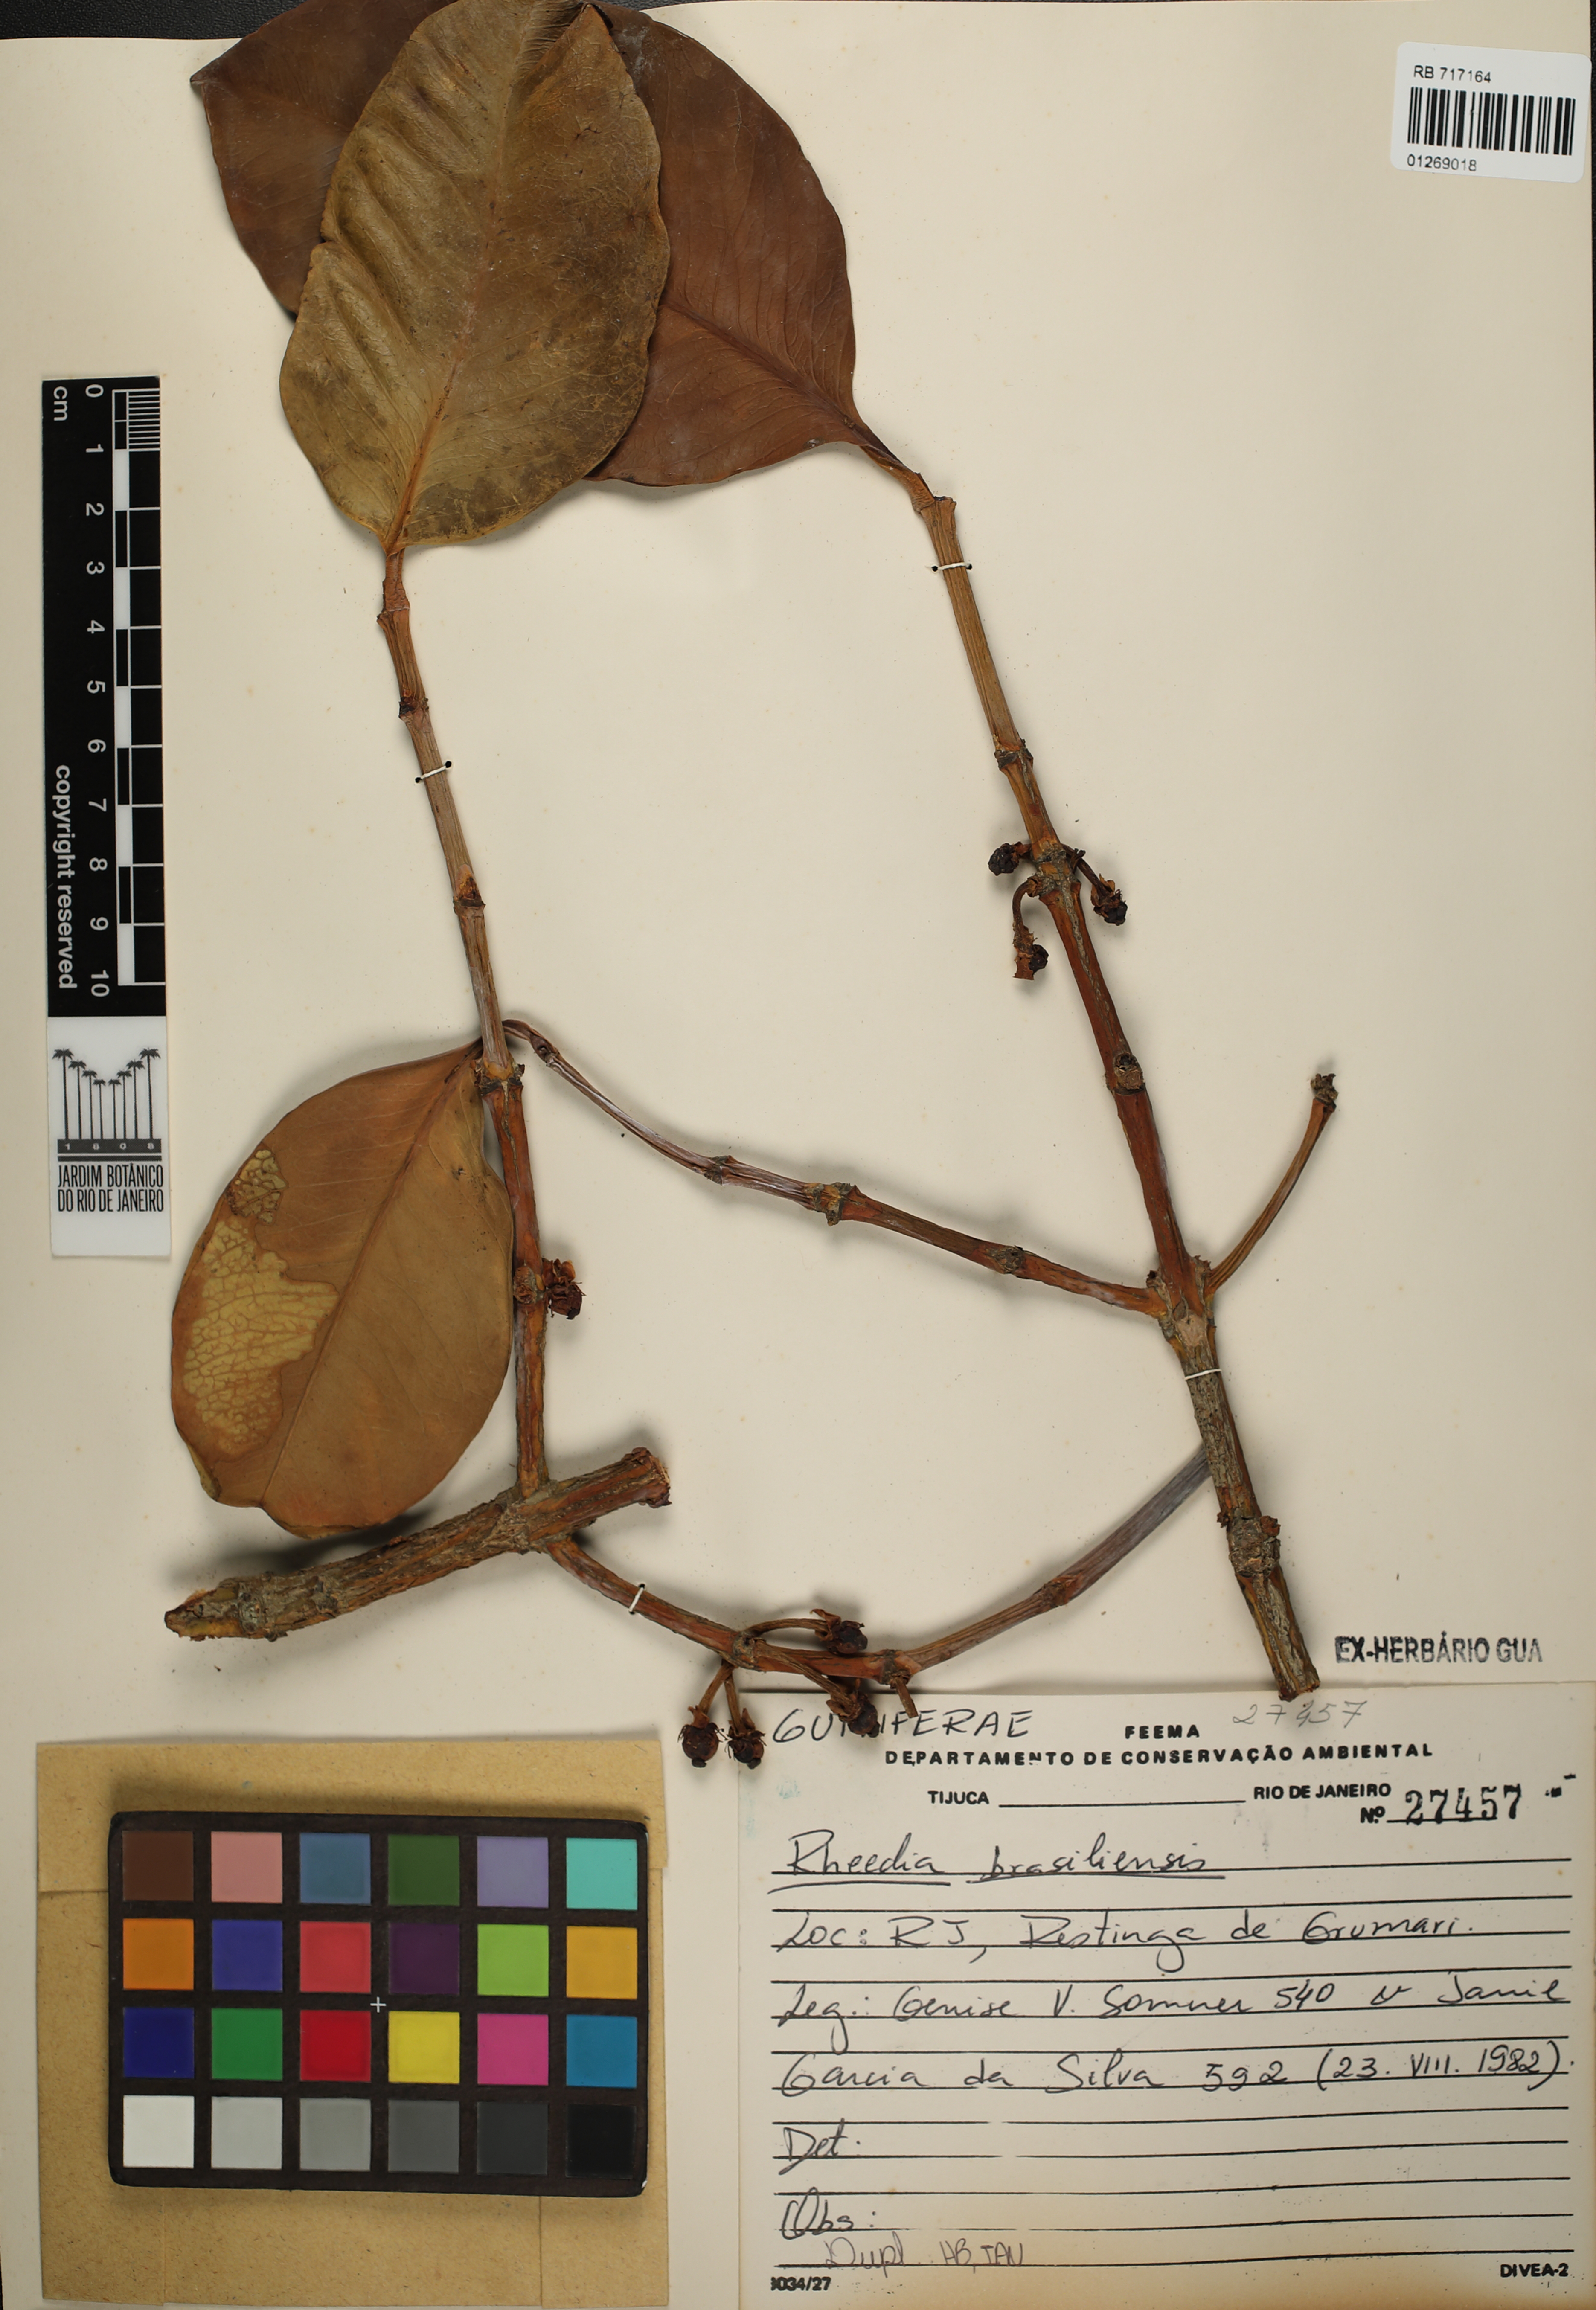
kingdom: Plantae
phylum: Tracheophyta
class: Magnoliopsida
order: Malpighiales
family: Clusiaceae
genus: Garcinia
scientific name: Garcinia brasiliensis
